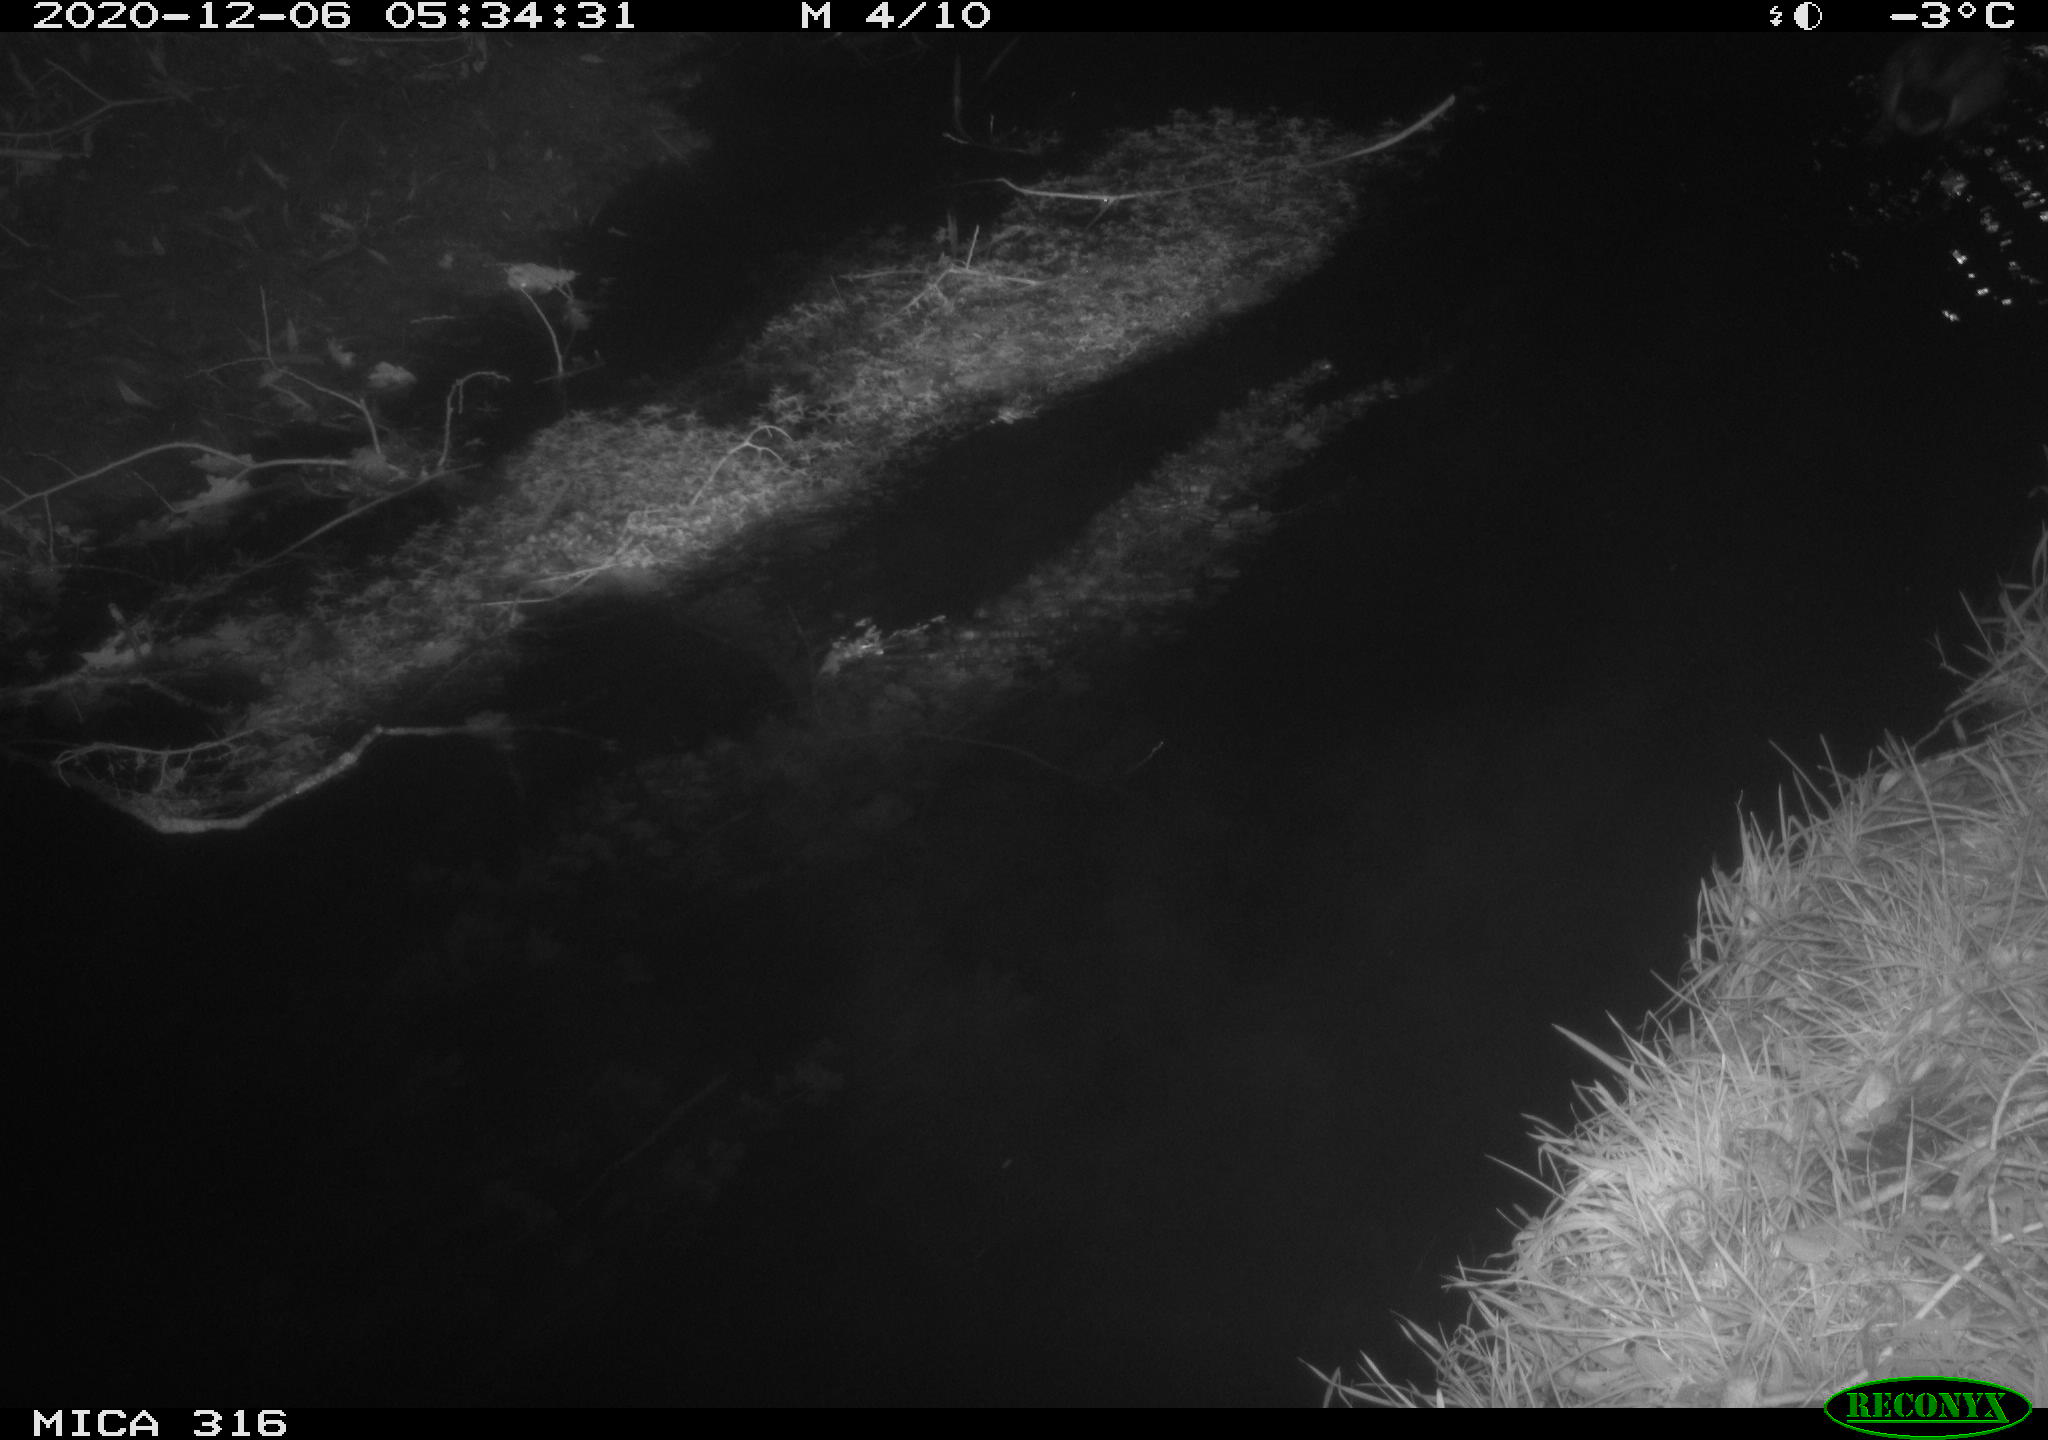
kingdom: Animalia
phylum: Chordata
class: Aves
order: Anseriformes
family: Anatidae
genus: Anas
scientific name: Anas platyrhynchos
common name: Mallard
